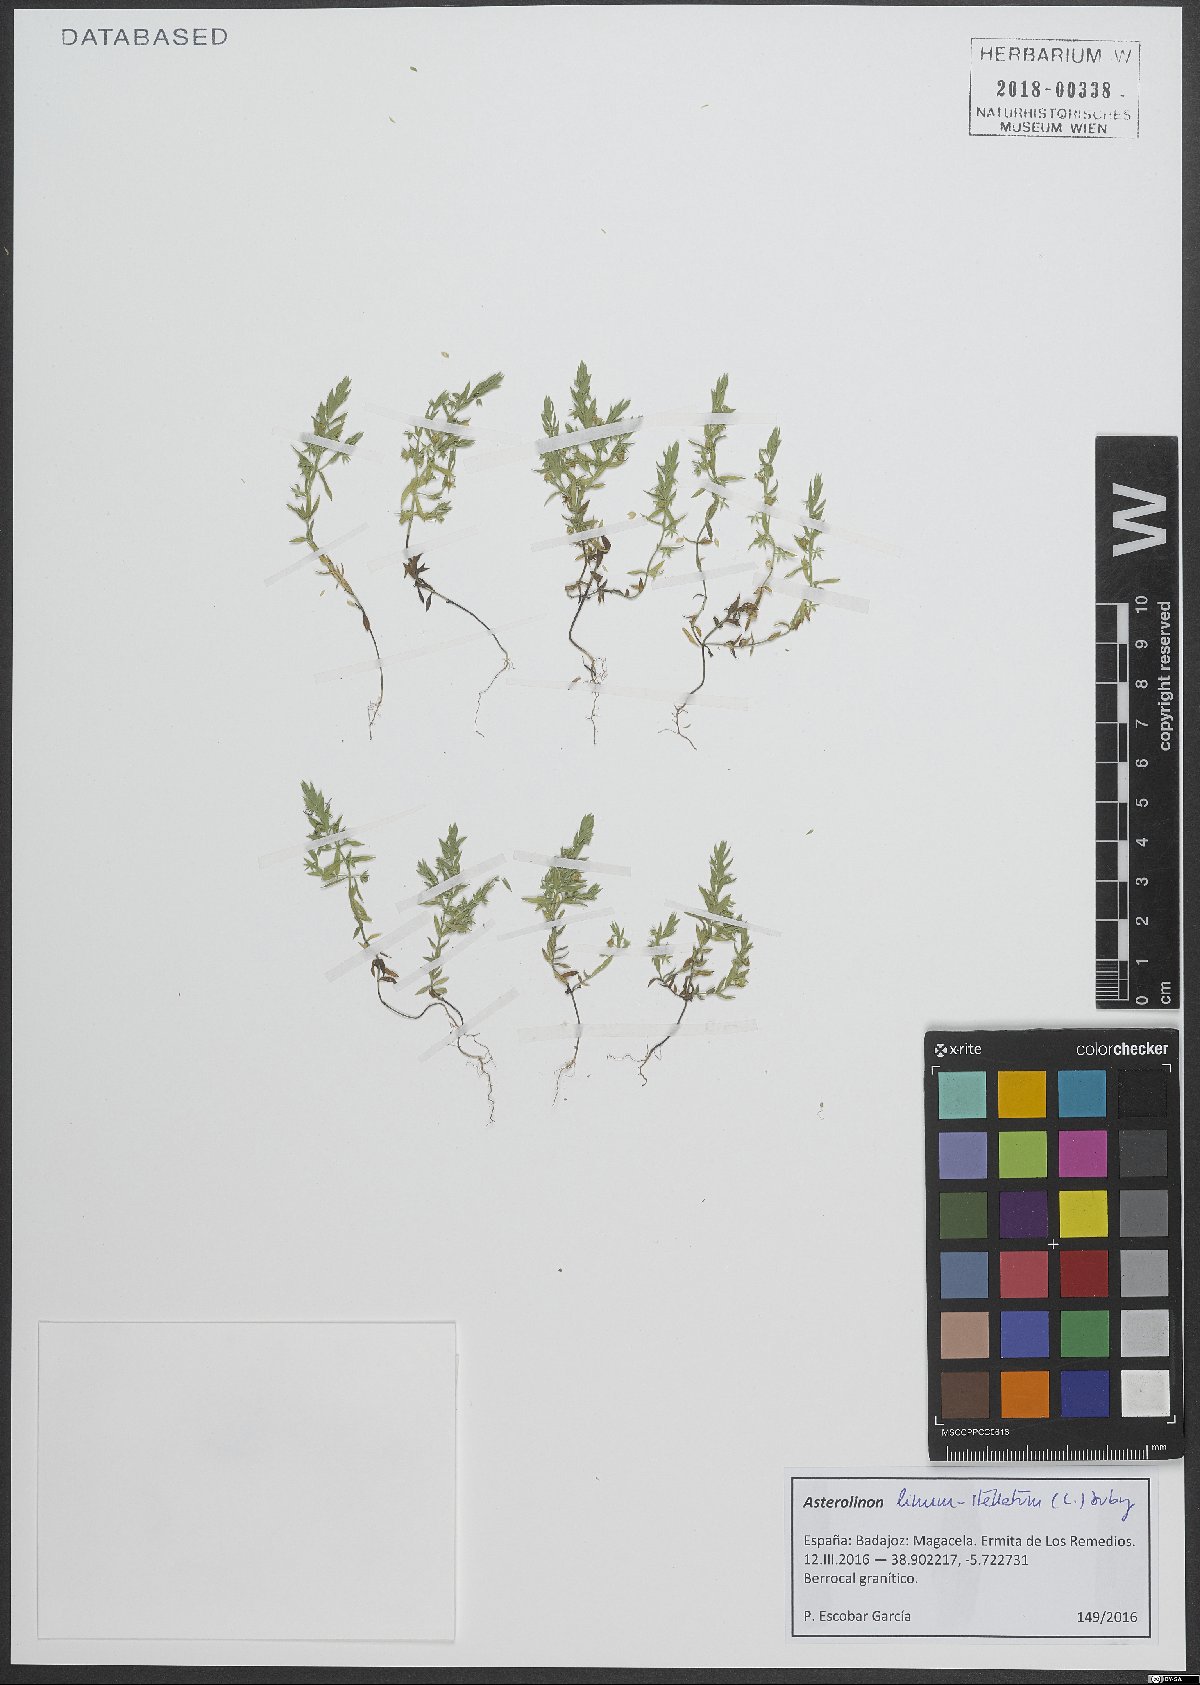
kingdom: Plantae
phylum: Tracheophyta
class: Magnoliopsida
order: Ericales
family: Primulaceae
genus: Lysimachia
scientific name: Lysimachia linum-stellatum
